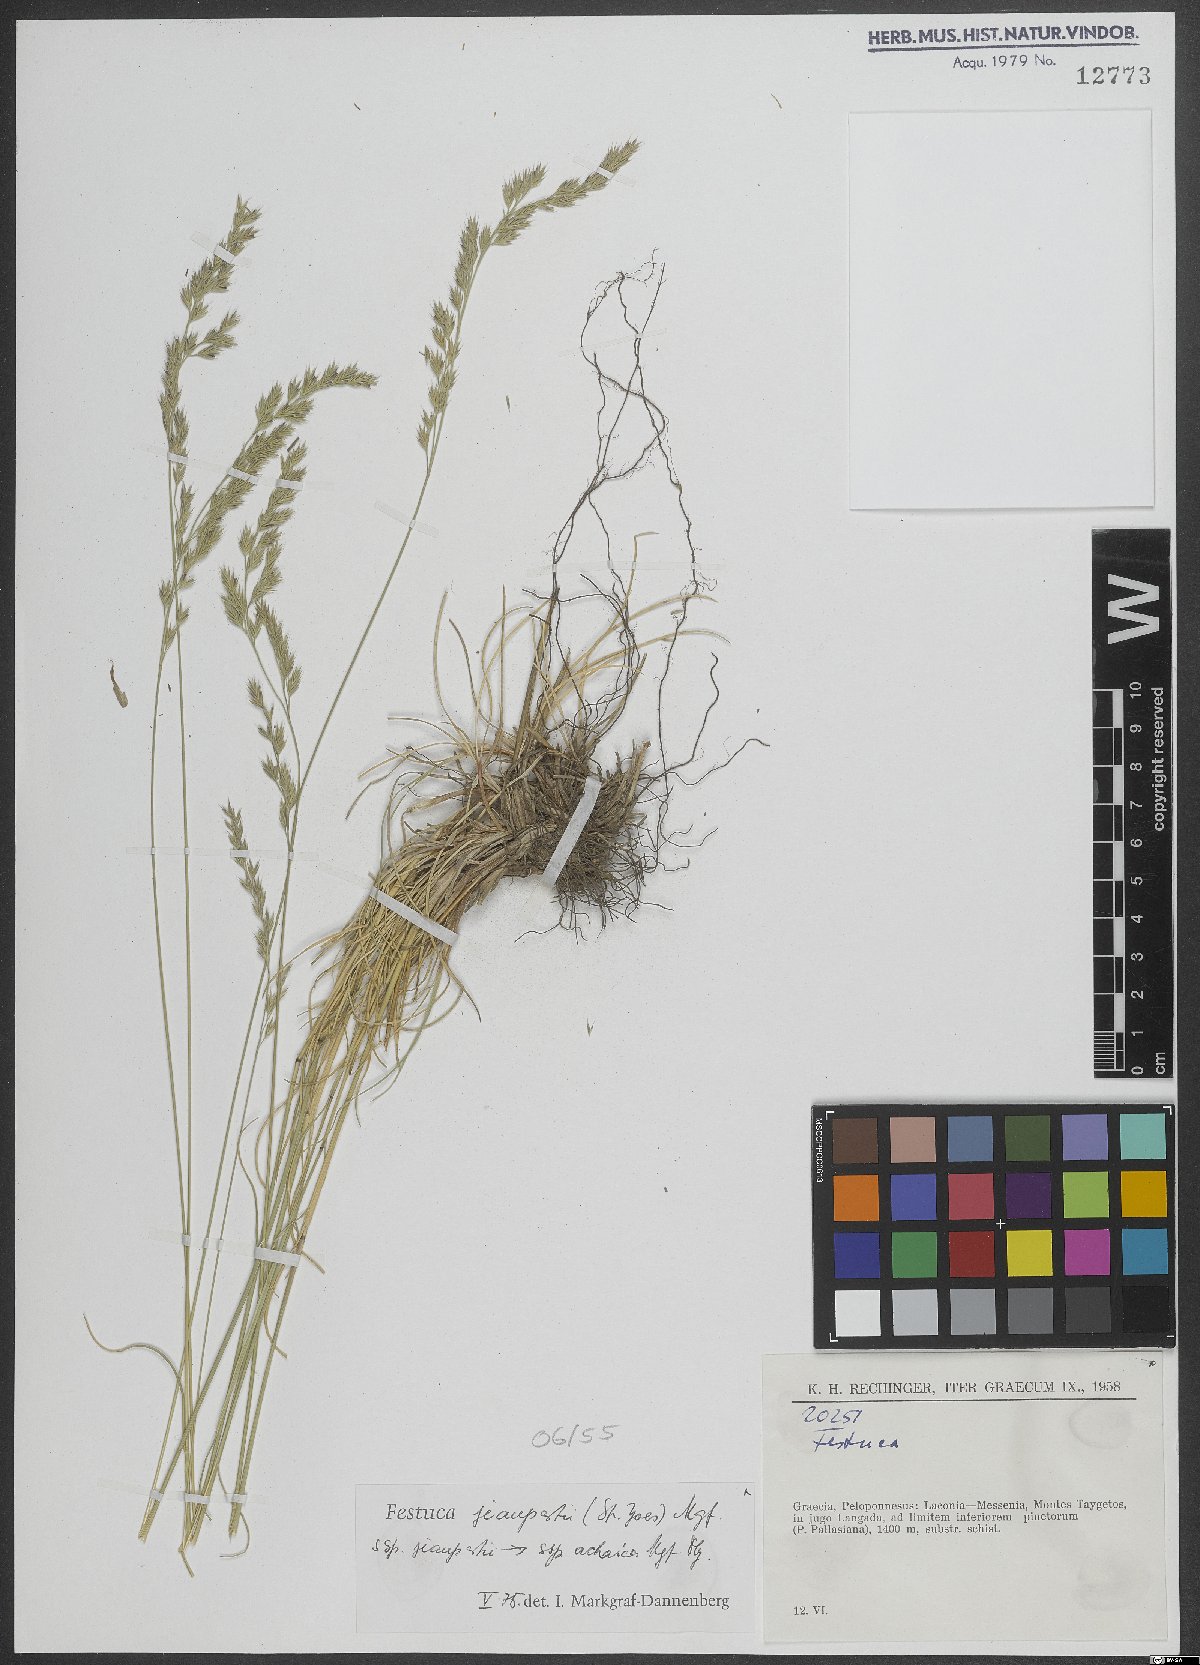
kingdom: Plantae
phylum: Tracheophyta
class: Liliopsida
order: Poales
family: Poaceae
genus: Festuca
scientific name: Festuca jeanpertii
